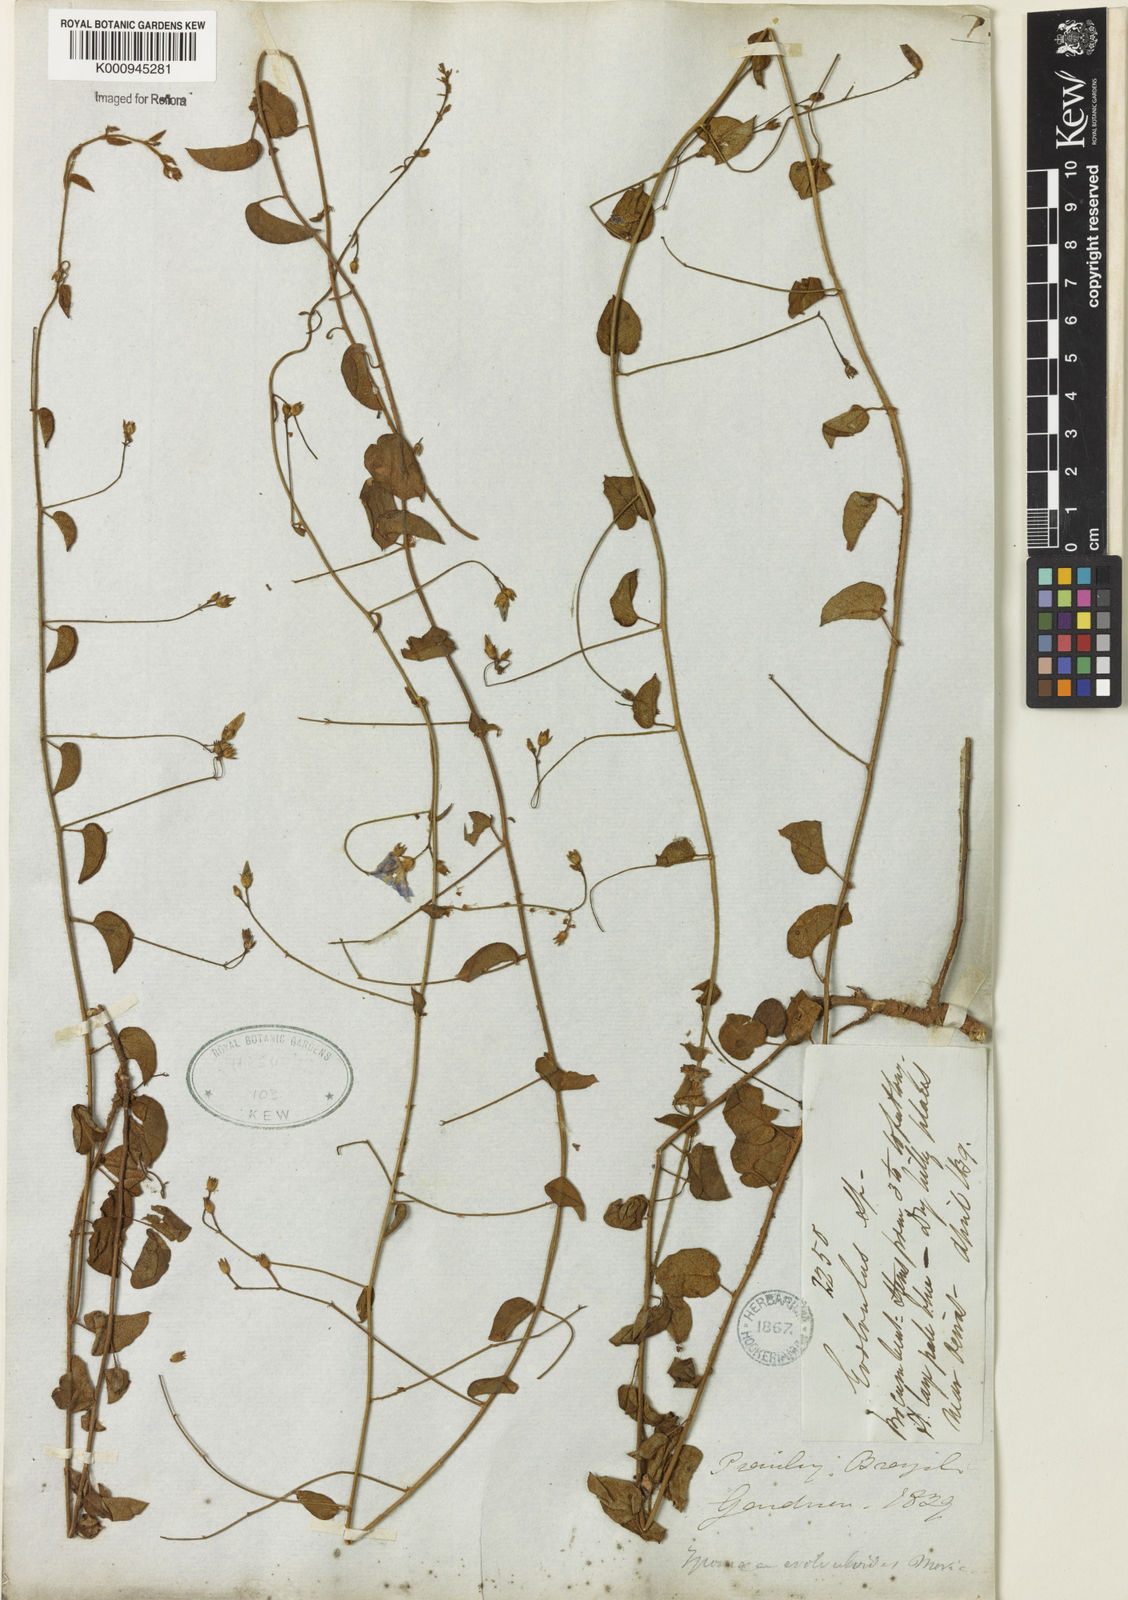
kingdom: Plantae
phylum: Tracheophyta
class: Magnoliopsida
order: Solanales
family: Convolvulaceae
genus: Jacquemontia
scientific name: Jacquemontia evolvuloides
